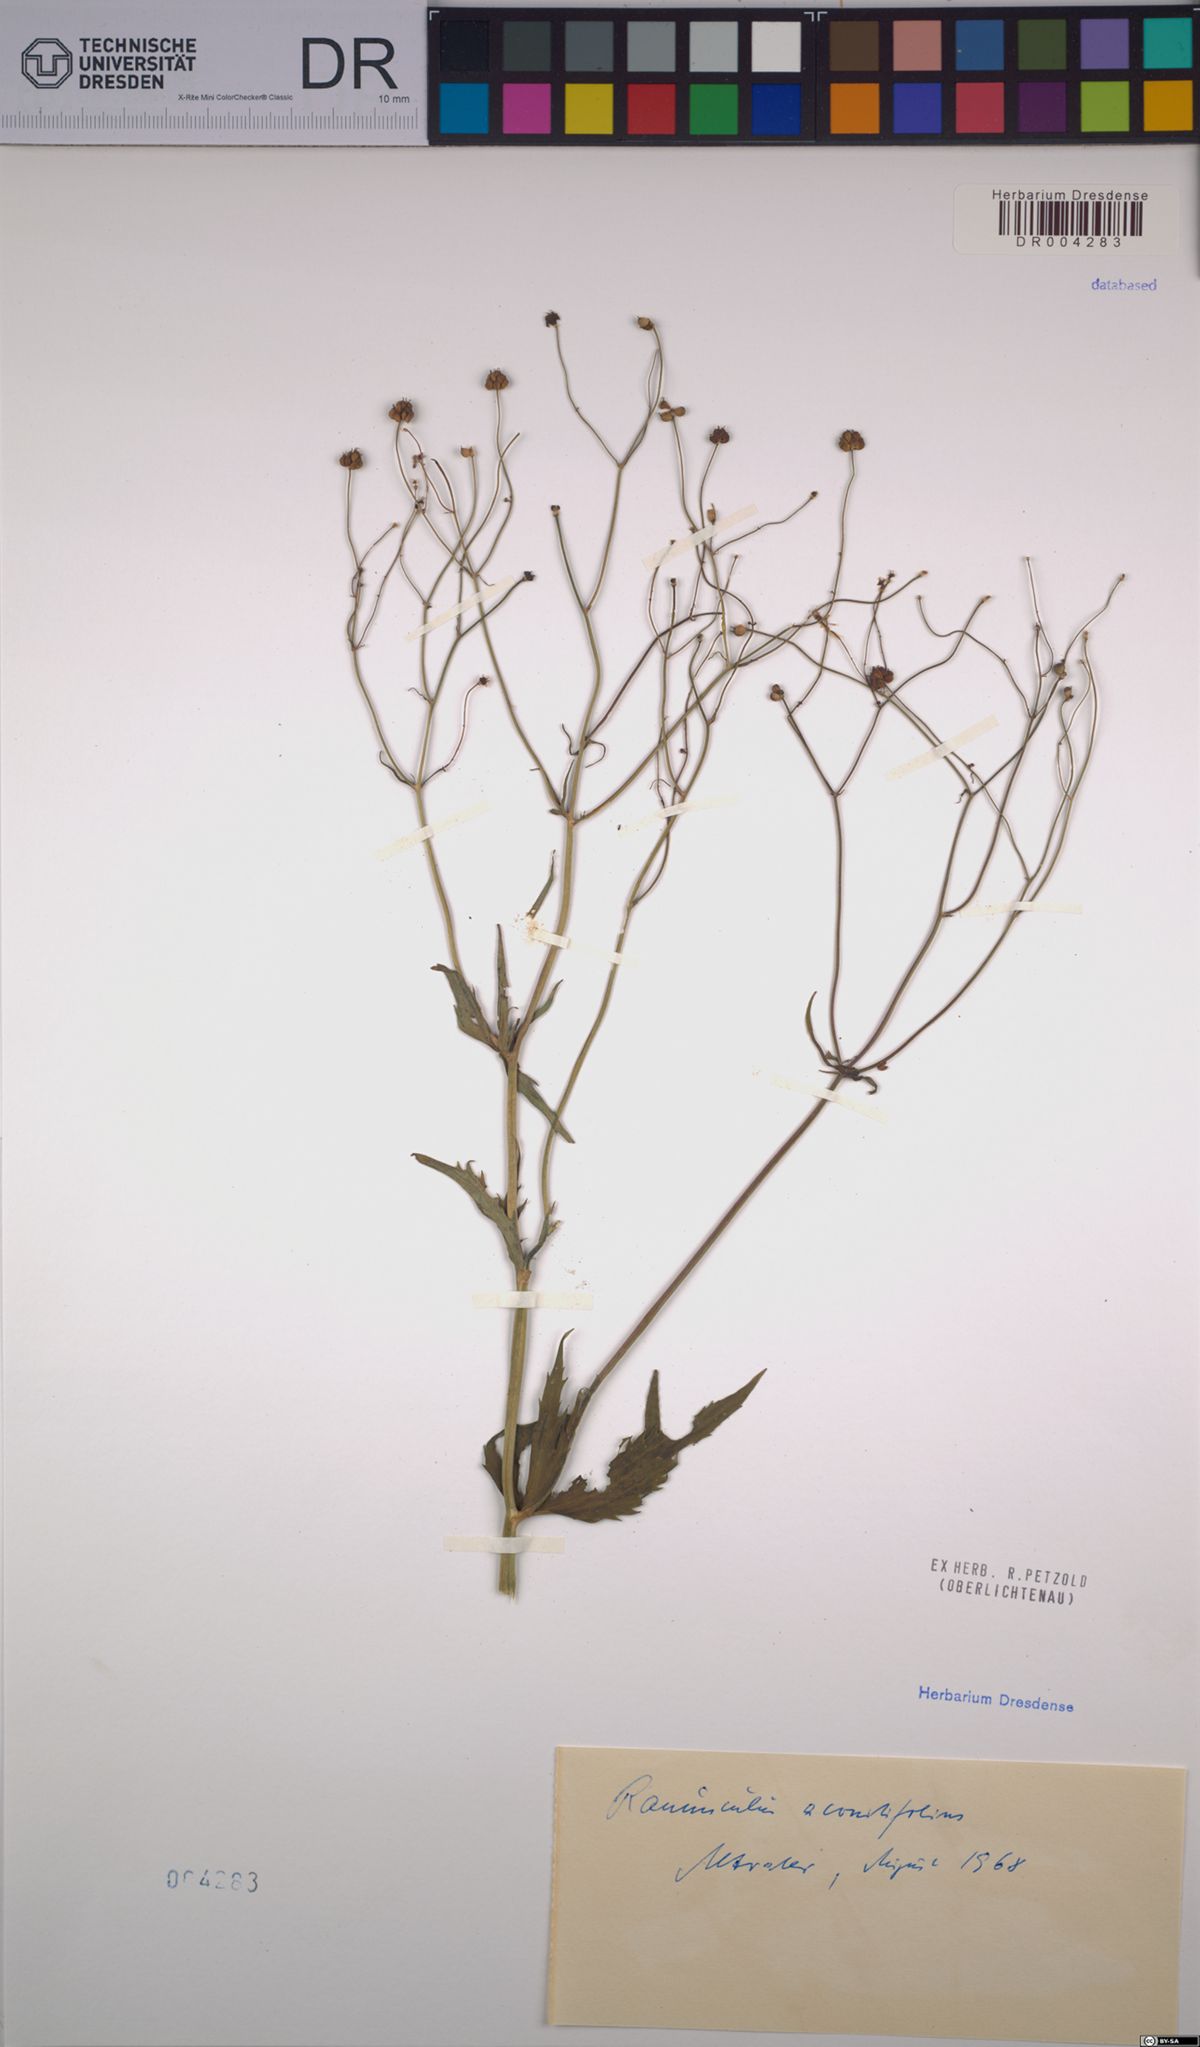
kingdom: Plantae
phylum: Tracheophyta
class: Magnoliopsida
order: Ranunculales
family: Ranunculaceae
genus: Ranunculus
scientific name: Ranunculus aconitifolius
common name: Aconite-leaved buttercup
